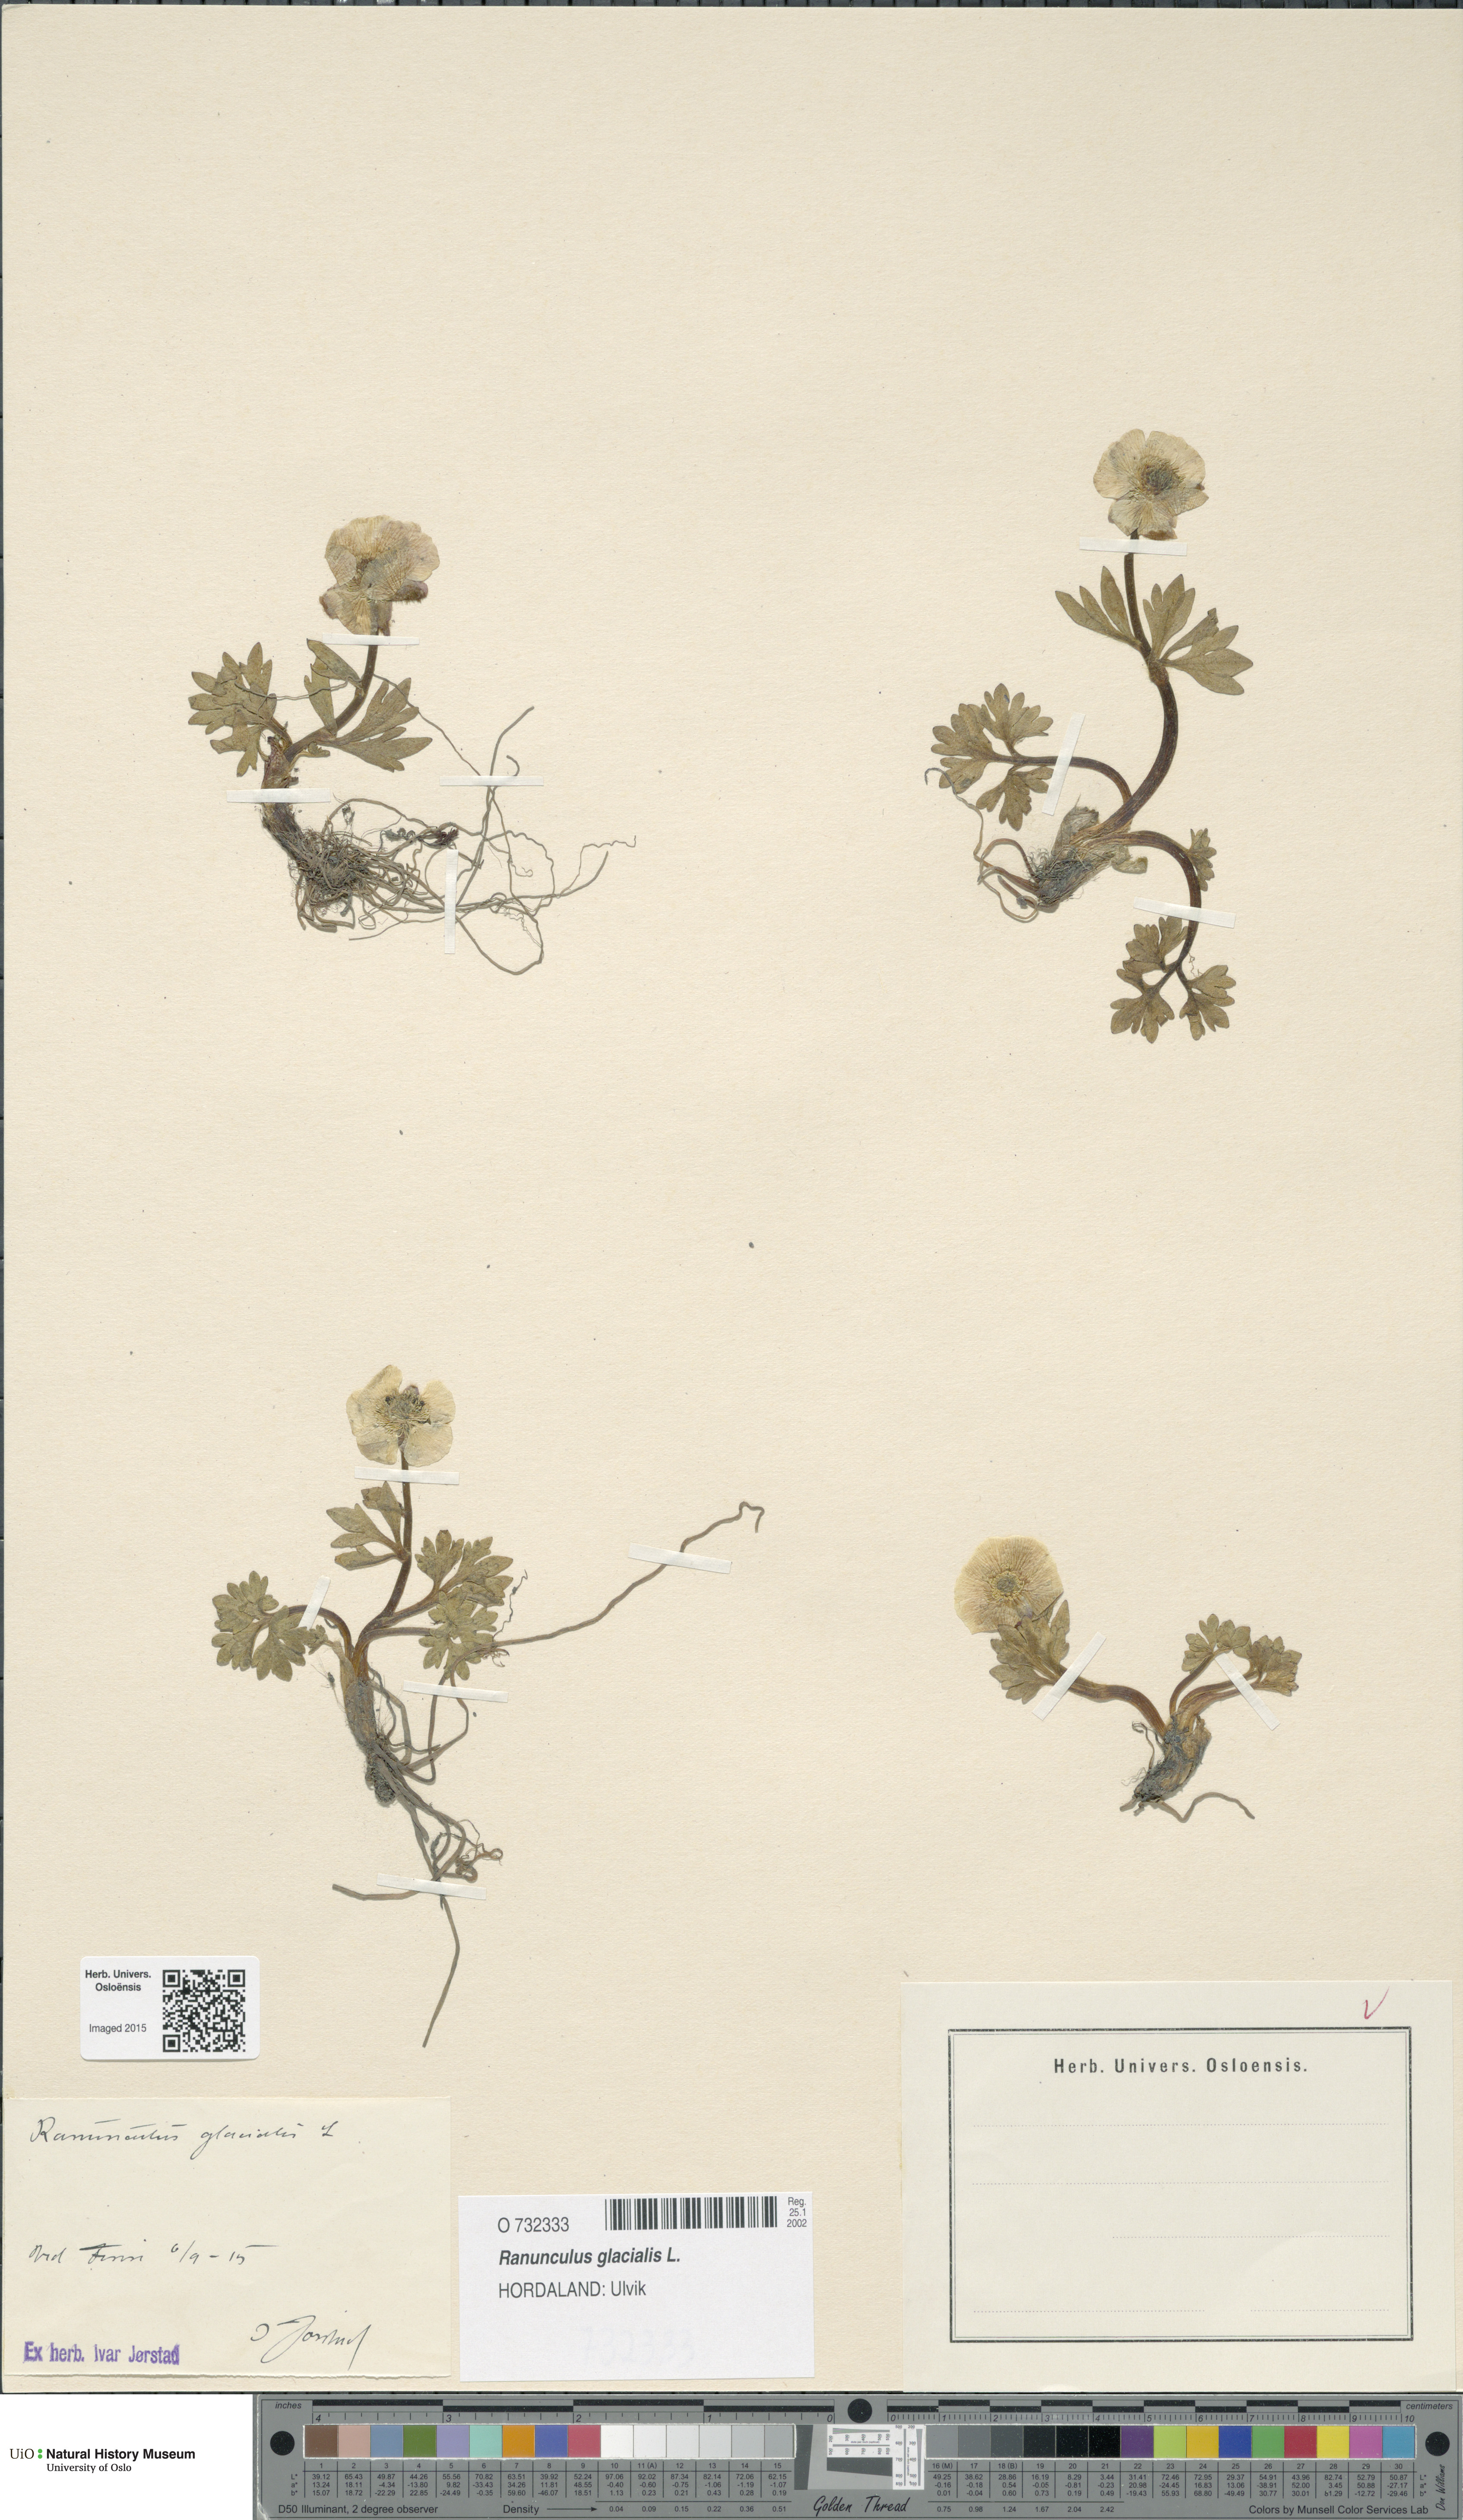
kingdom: Plantae
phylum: Tracheophyta
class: Magnoliopsida
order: Ranunculales
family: Ranunculaceae
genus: Ranunculus
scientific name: Ranunculus glacialis
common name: Glacier buttercup
